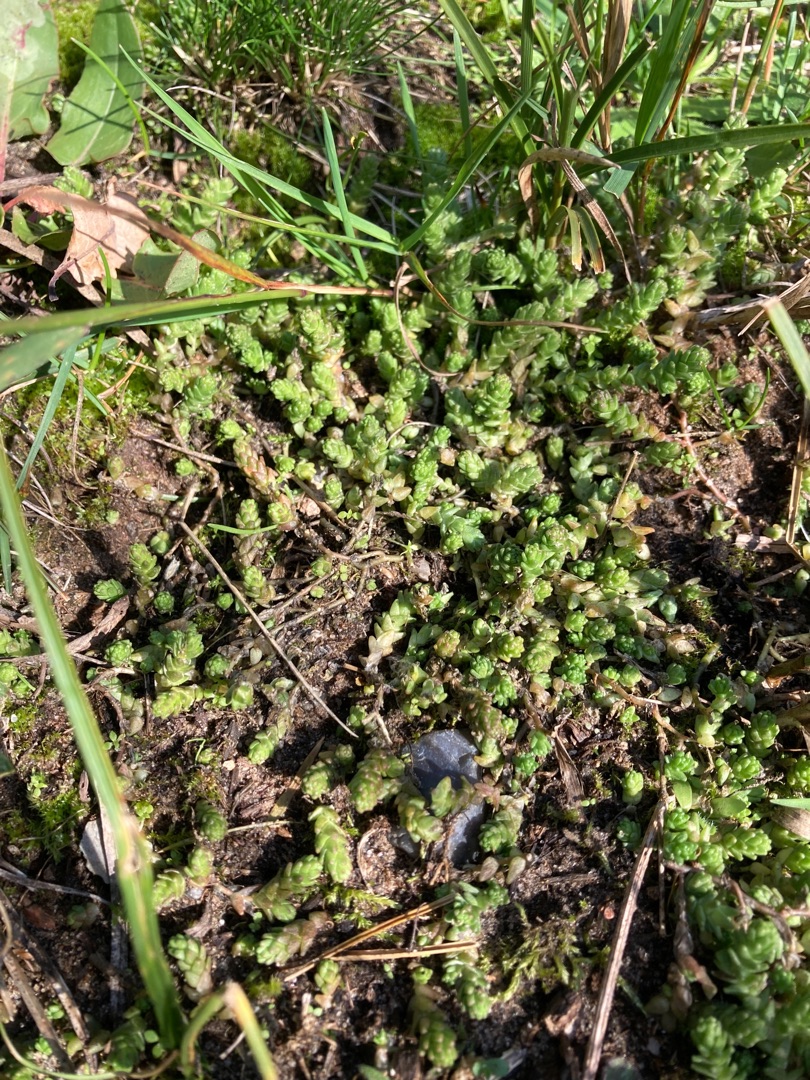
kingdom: Plantae
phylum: Tracheophyta
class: Magnoliopsida
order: Saxifragales
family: Crassulaceae
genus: Sedum
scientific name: Sedum acre
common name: Bidende stenurt
